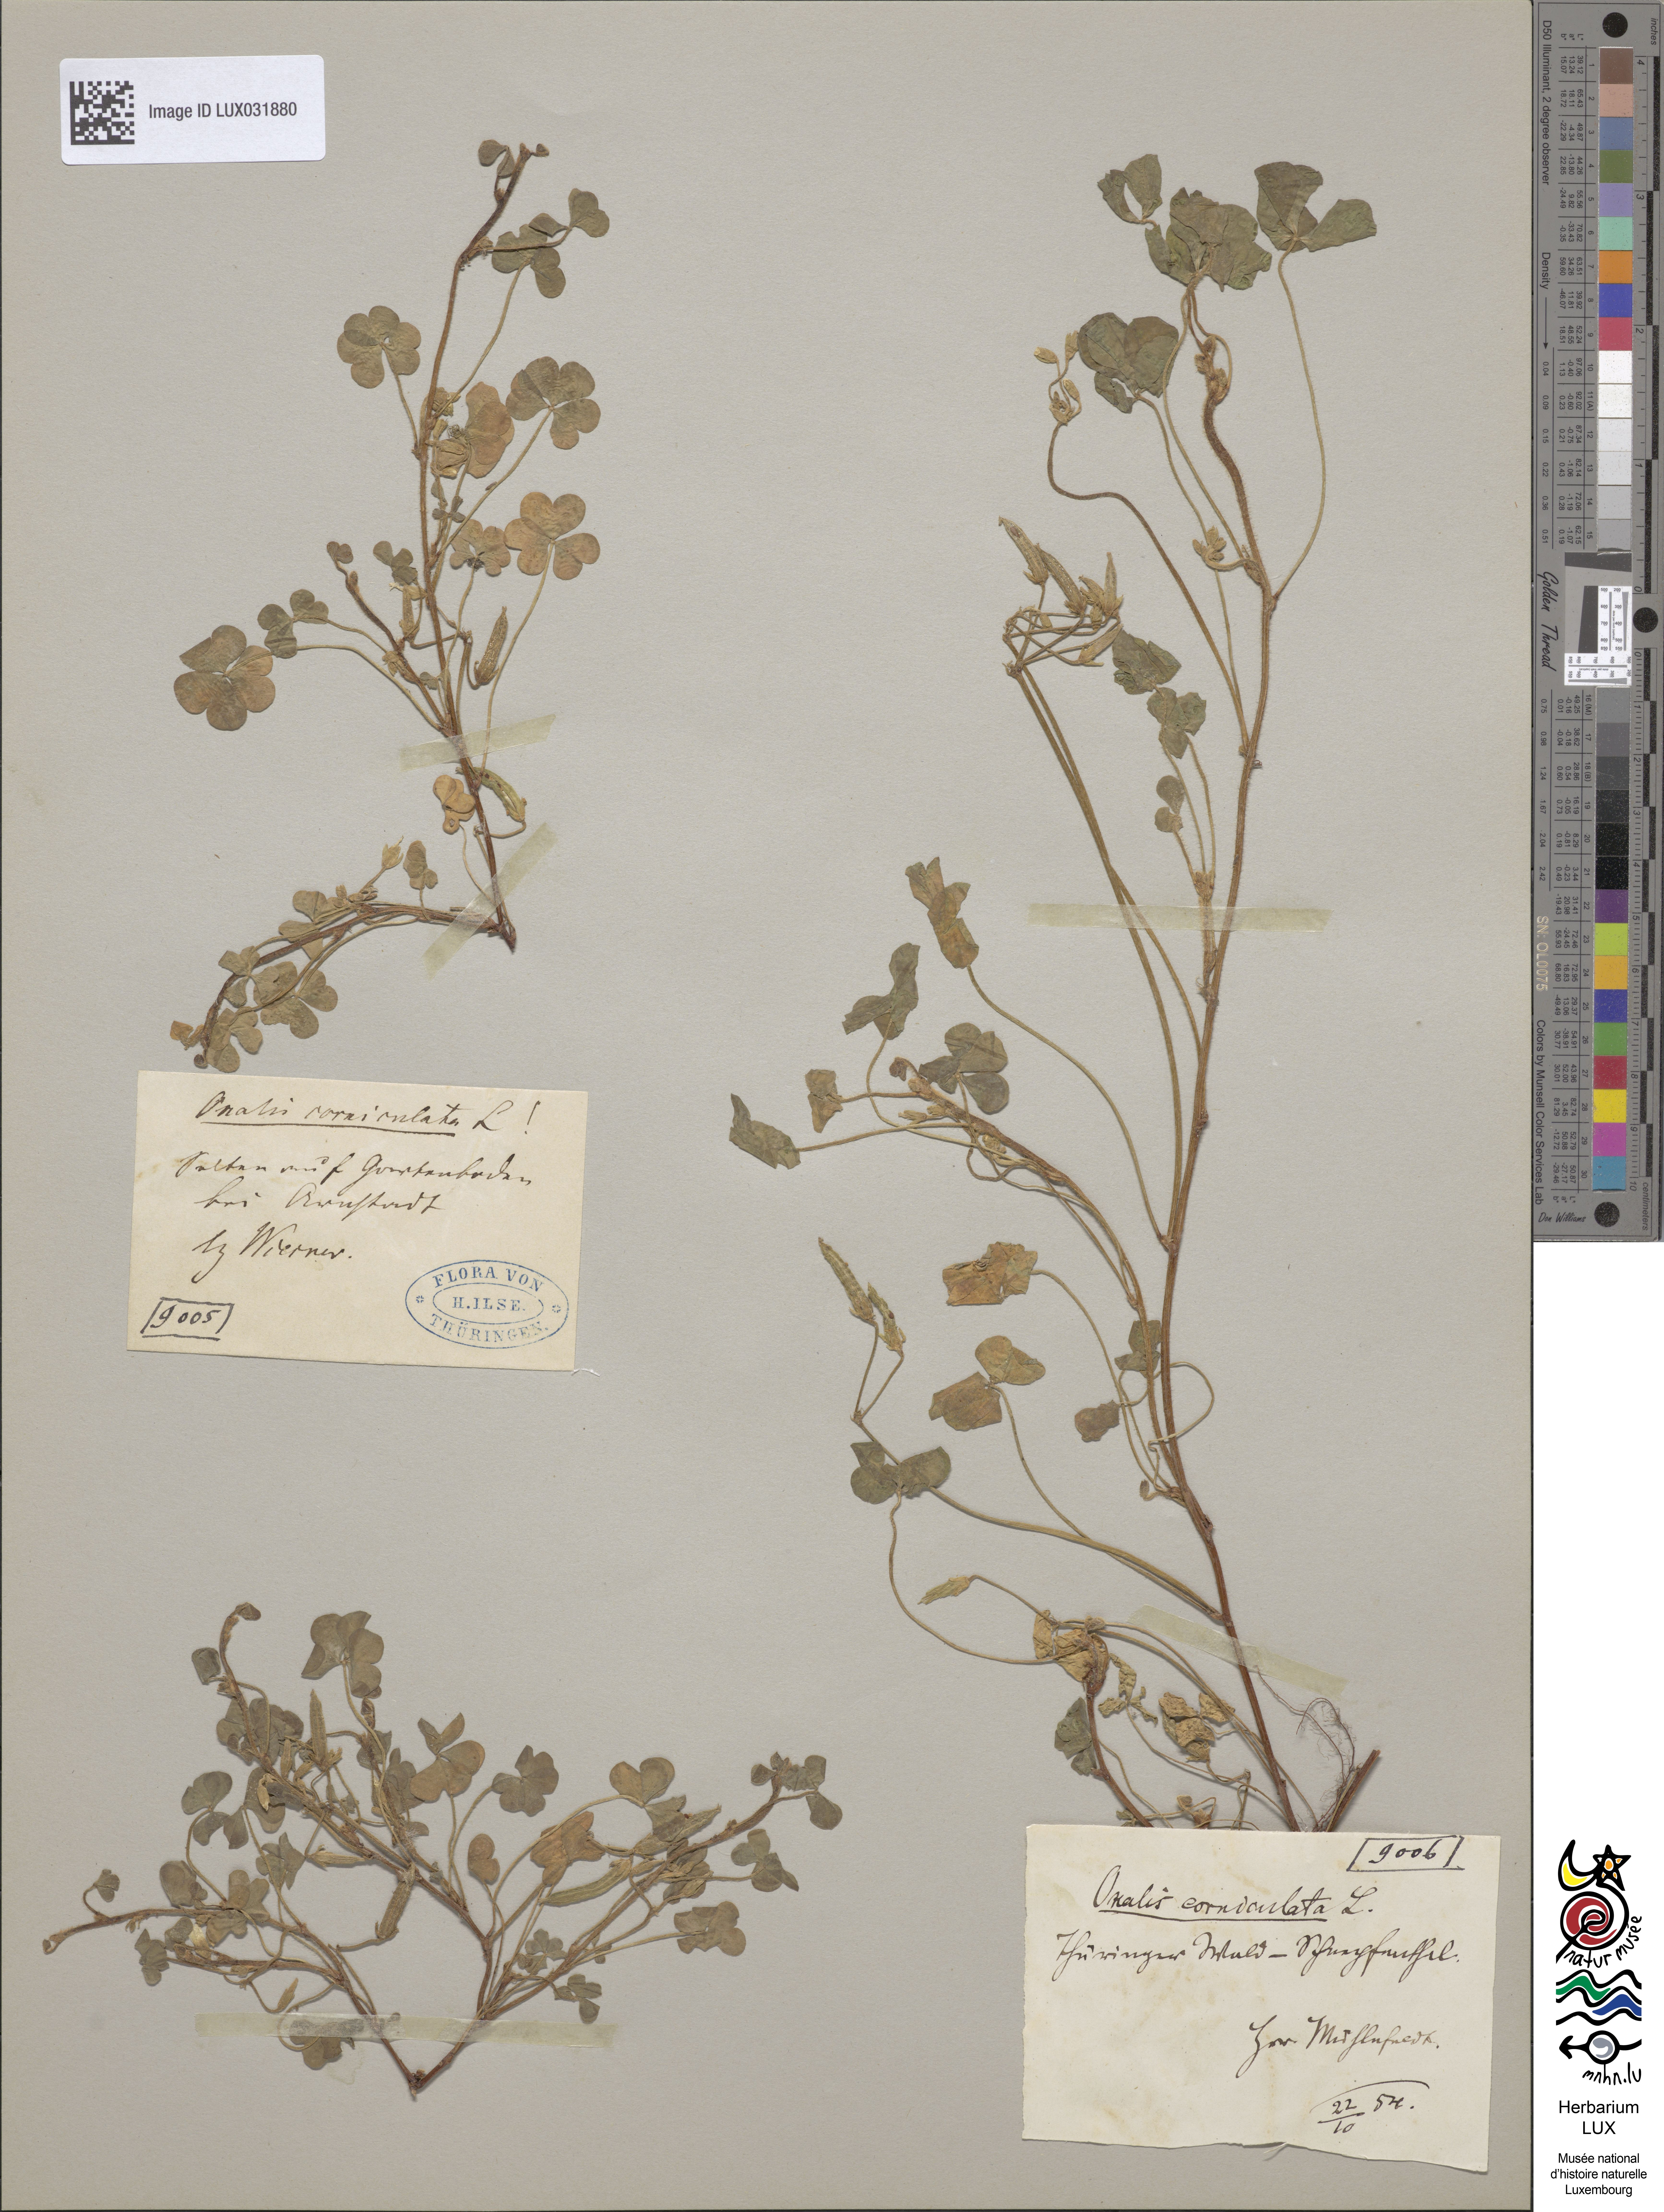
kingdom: Plantae
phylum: Tracheophyta
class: Magnoliopsida
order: Oxalidales
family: Oxalidaceae
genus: Oxalis
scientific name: Oxalis corniculata
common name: Procumbent yellow-sorrel
